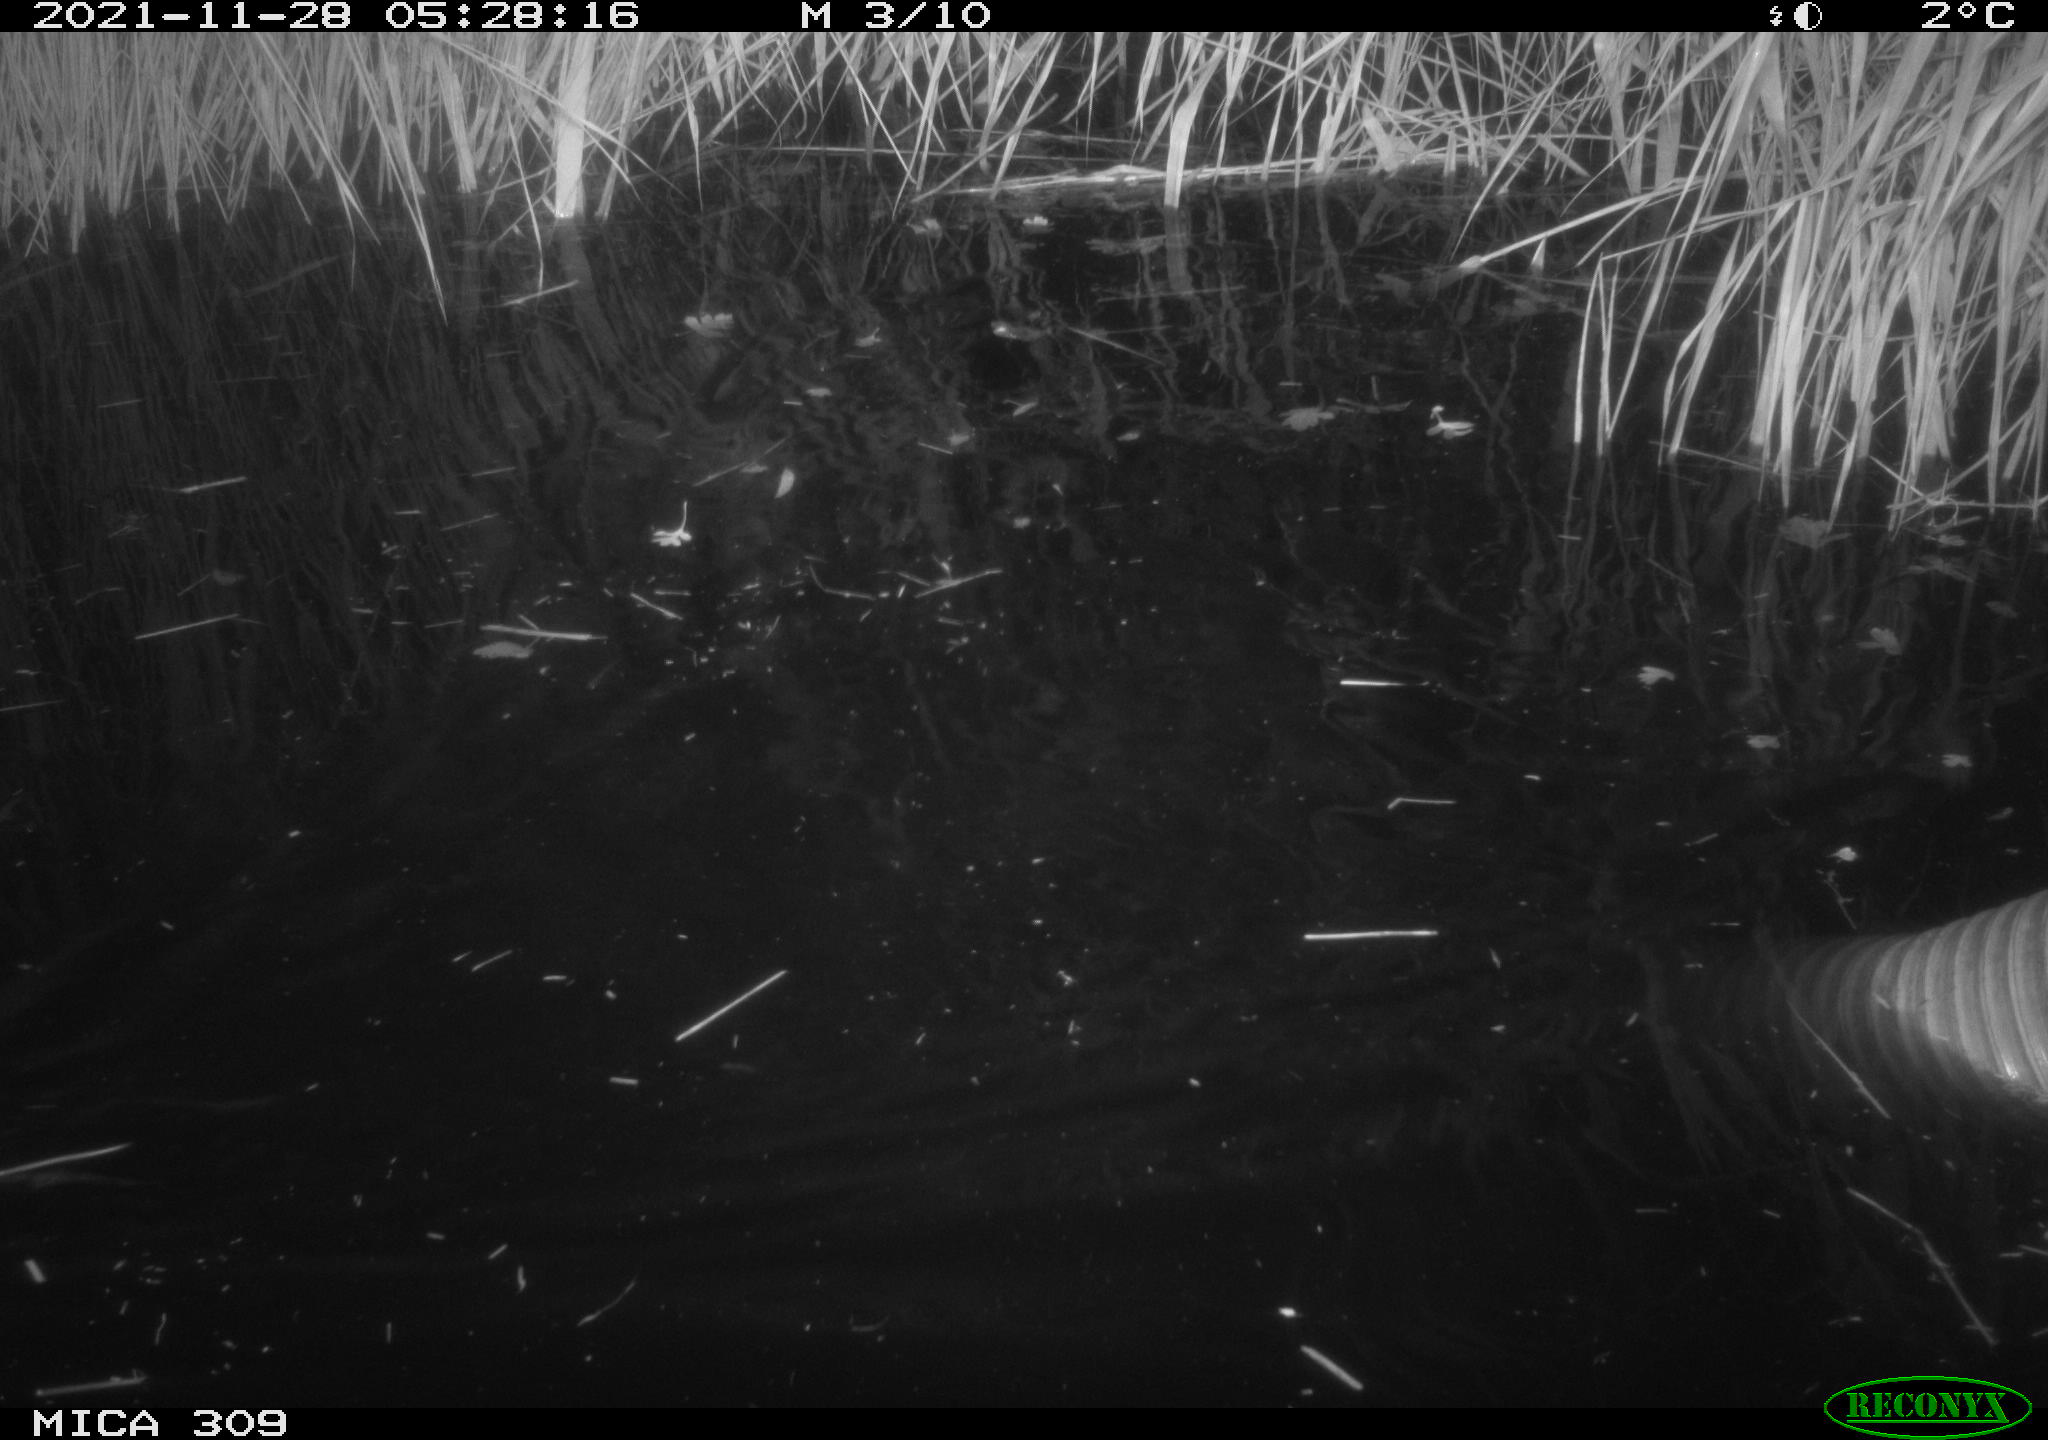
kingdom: Animalia
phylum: Chordata
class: Mammalia
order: Rodentia
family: Muridae
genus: Rattus
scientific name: Rattus norvegicus
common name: Brown rat
